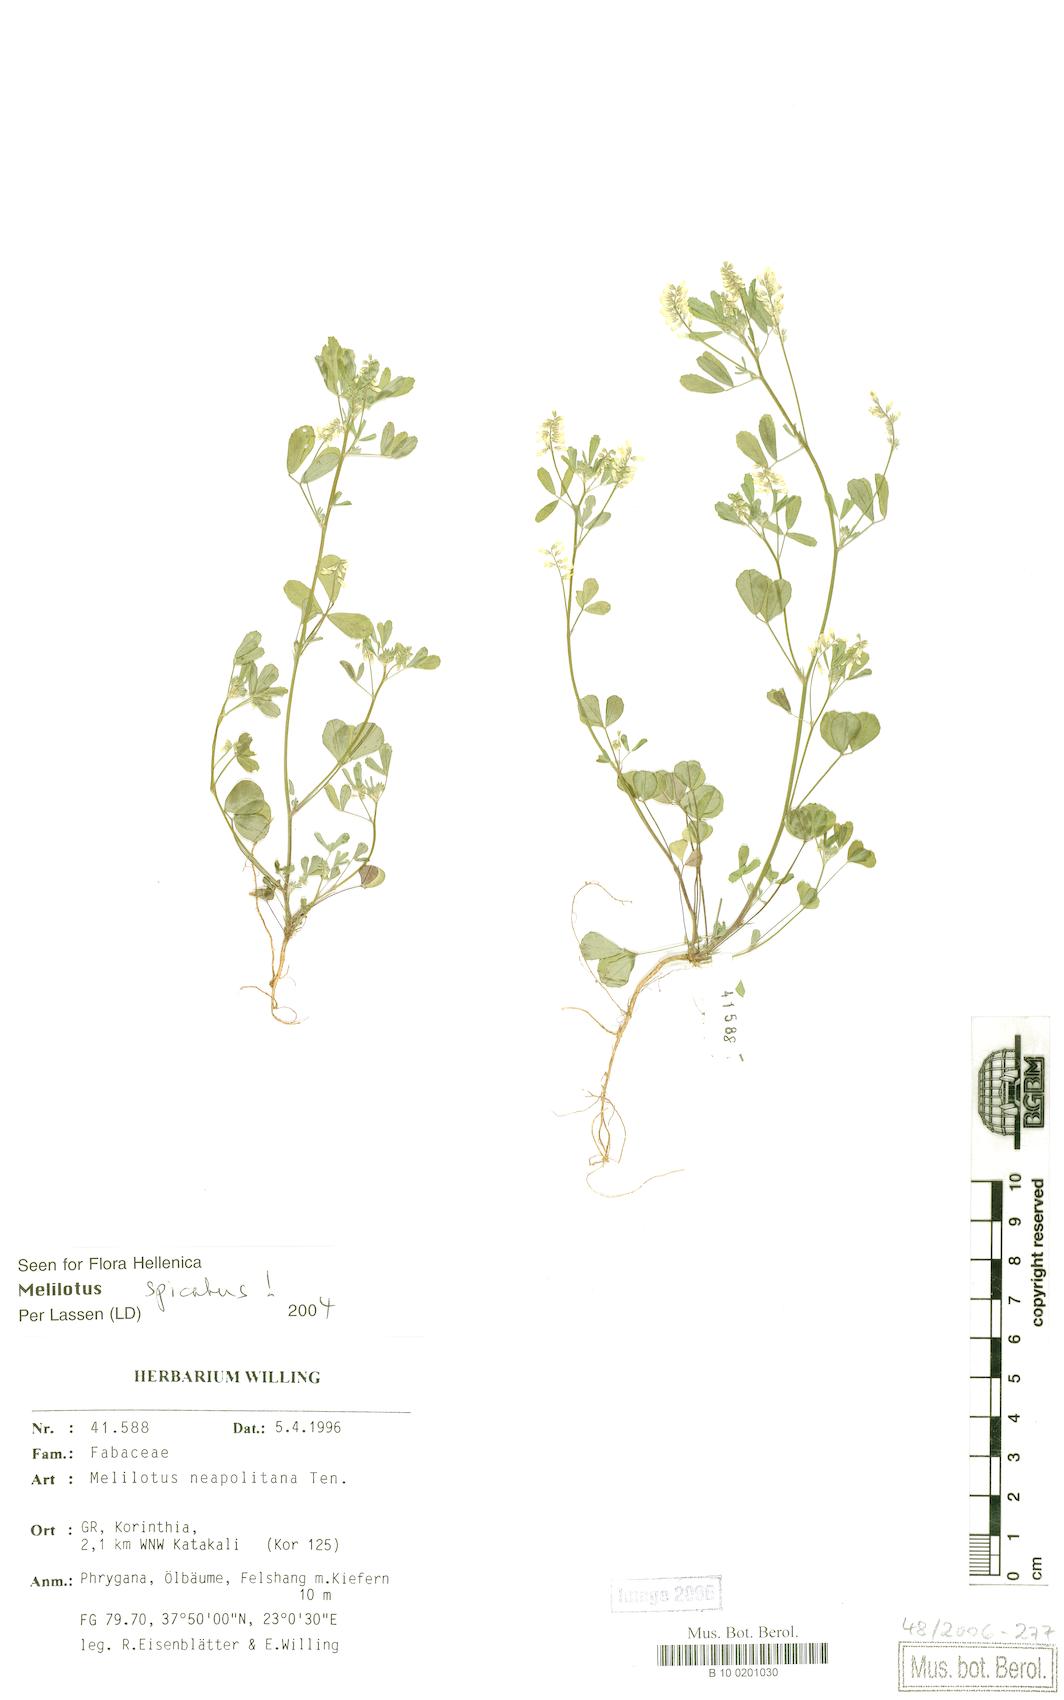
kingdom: Plantae
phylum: Tracheophyta
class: Magnoliopsida
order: Fabales
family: Fabaceae
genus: Melilotus
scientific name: Melilotus neapolitanus
